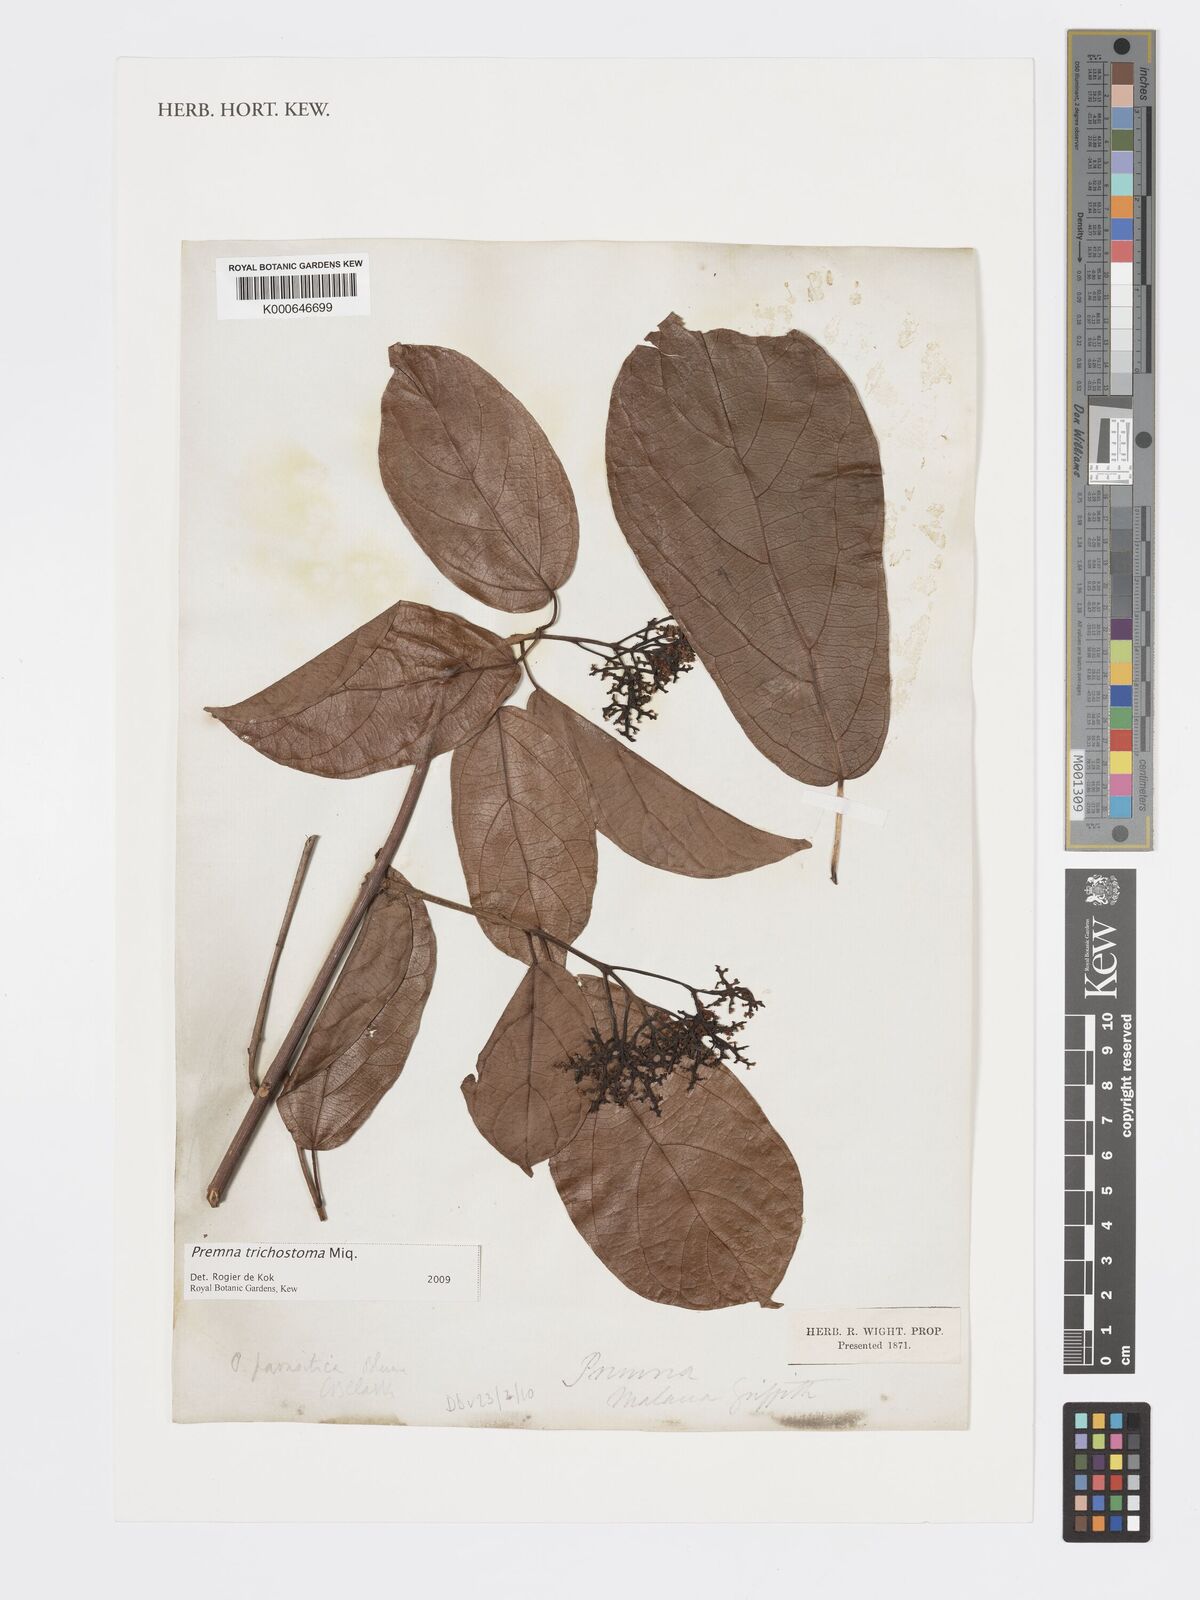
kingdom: Plantae
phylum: Tracheophyta
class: Magnoliopsida
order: Lamiales
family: Lamiaceae
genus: Premna
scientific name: Premna trichostoma
